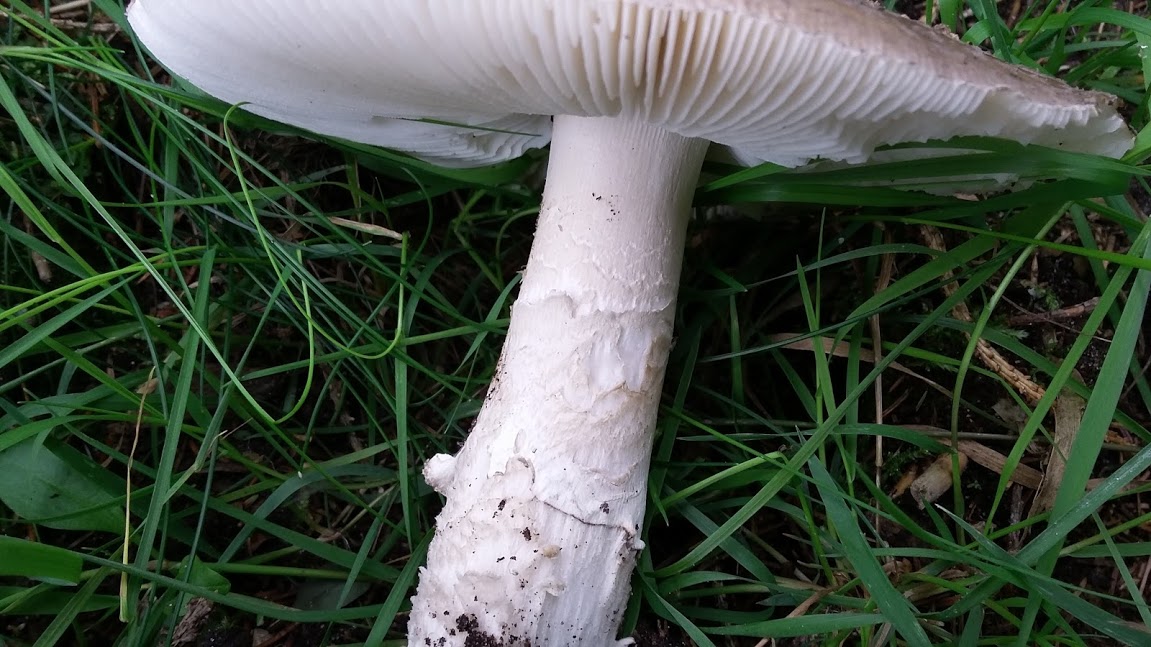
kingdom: Fungi
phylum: Basidiomycota
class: Agaricomycetes
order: Agaricales
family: Amanitaceae
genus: Amanita
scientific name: Amanita
